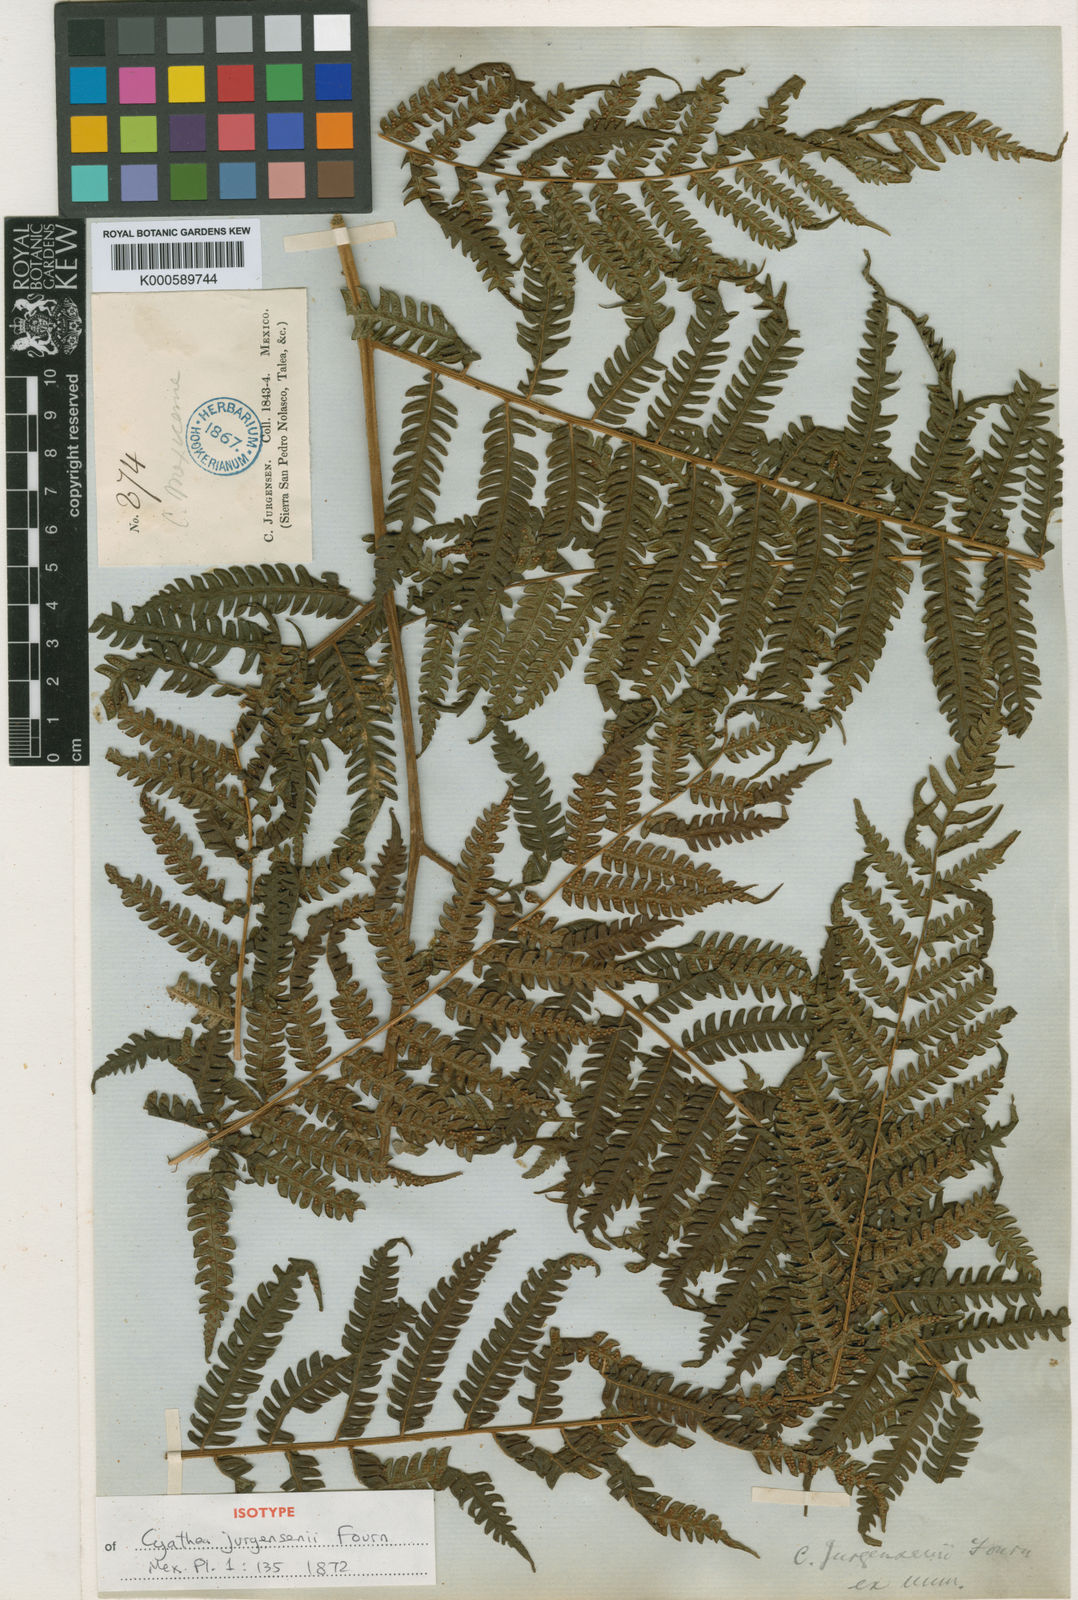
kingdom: Plantae
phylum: Tracheophyta
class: Polypodiopsida
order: Cyatheales
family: Cyatheaceae
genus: Cyathea
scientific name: Cyathea tuerckheimii
